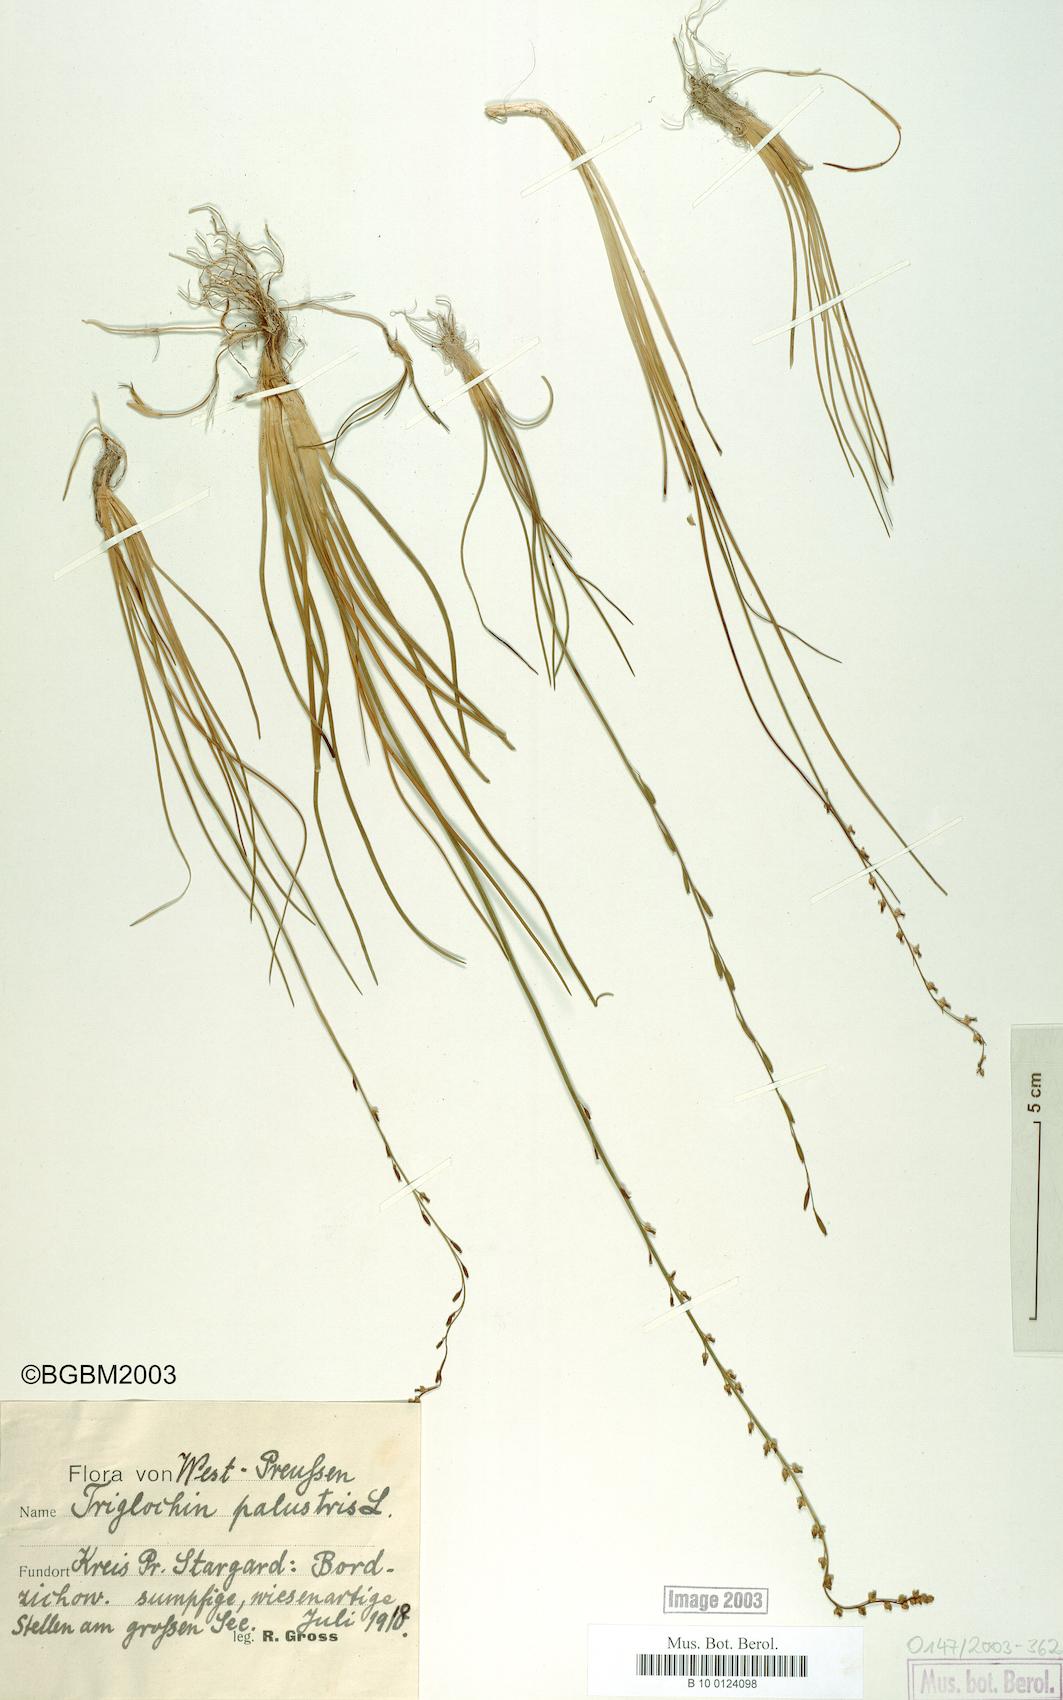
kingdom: Plantae
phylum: Tracheophyta
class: Liliopsida
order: Alismatales
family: Juncaginaceae
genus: Triglochin
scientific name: Triglochin palustris
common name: Marsh arrowgrass
